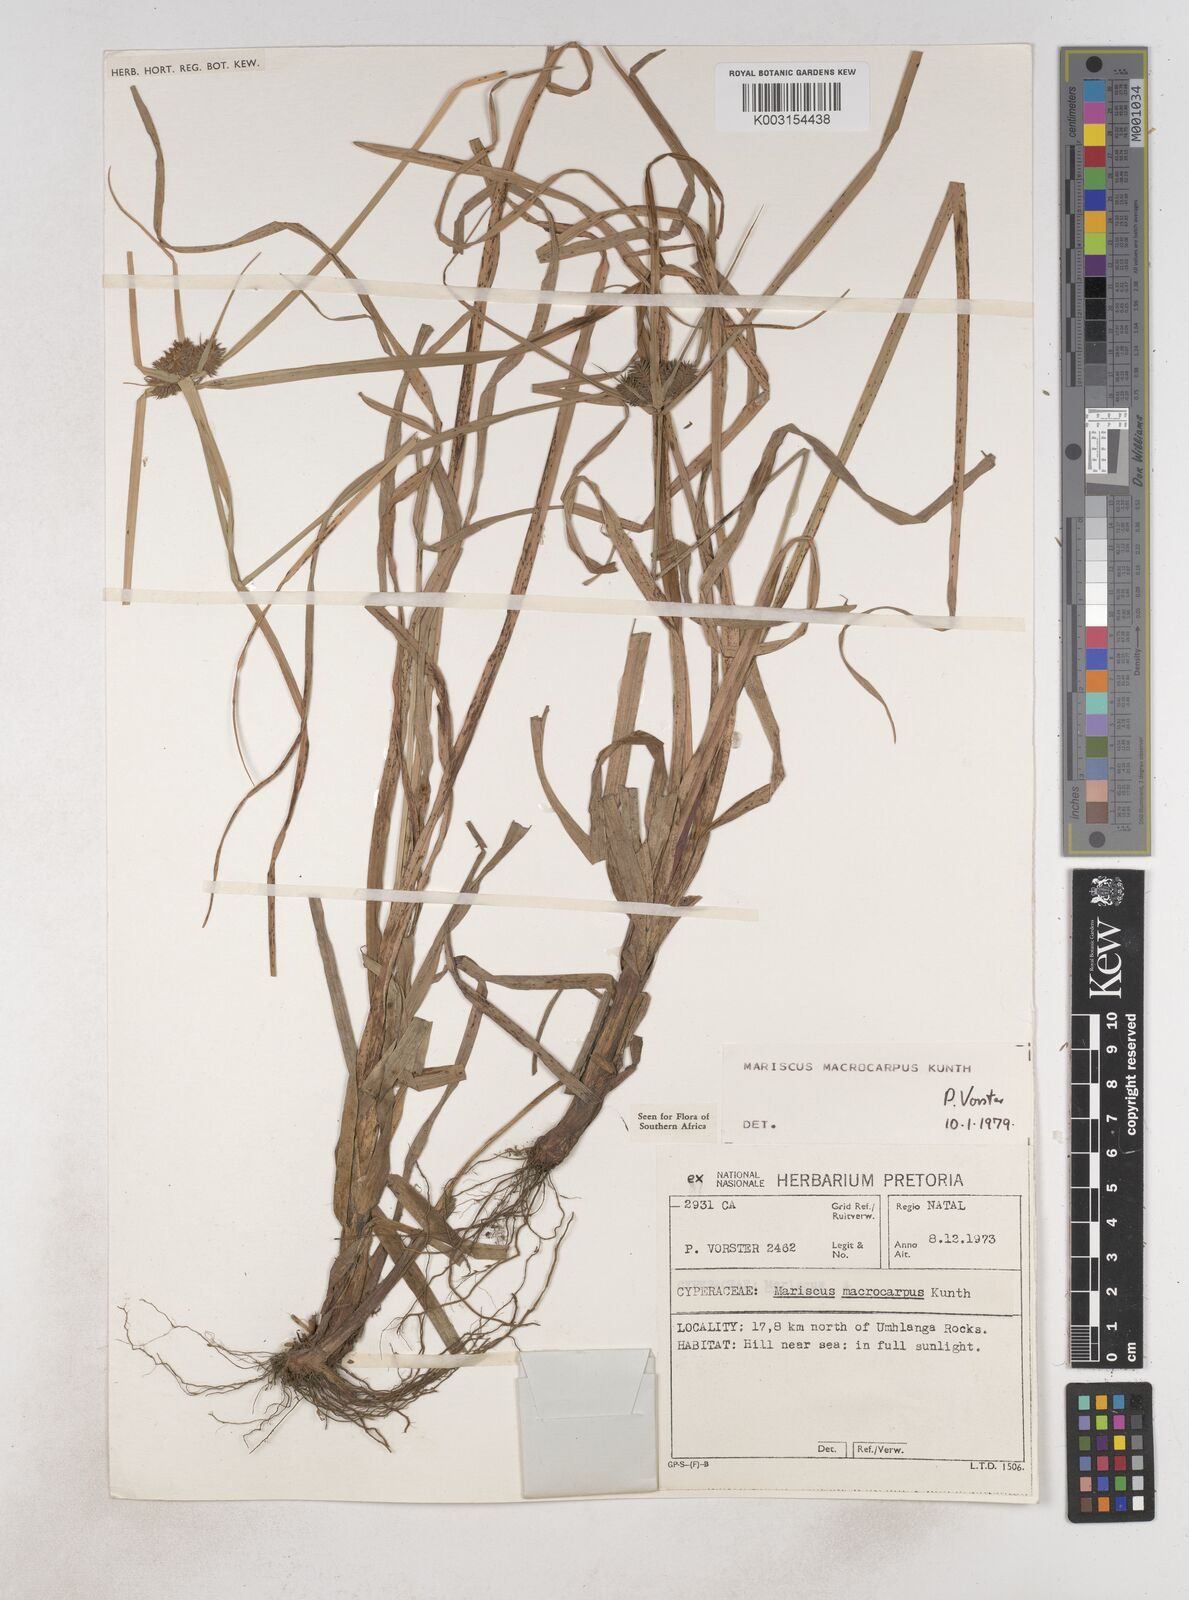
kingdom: Plantae
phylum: Tracheophyta
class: Liliopsida
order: Poales
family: Cyperaceae
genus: Cyperus
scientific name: Cyperus macrocarpus
